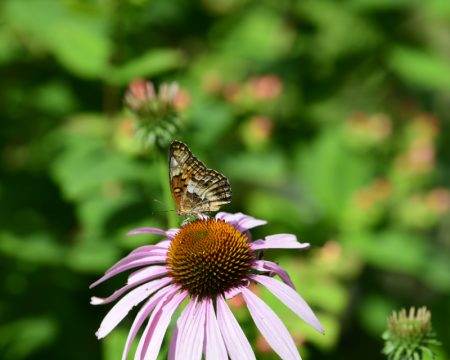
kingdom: Animalia
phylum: Arthropoda
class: Insecta
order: Lepidoptera
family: Nymphalidae
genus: Euptoieta
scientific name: Euptoieta claudia
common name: Variegated Fritillary
